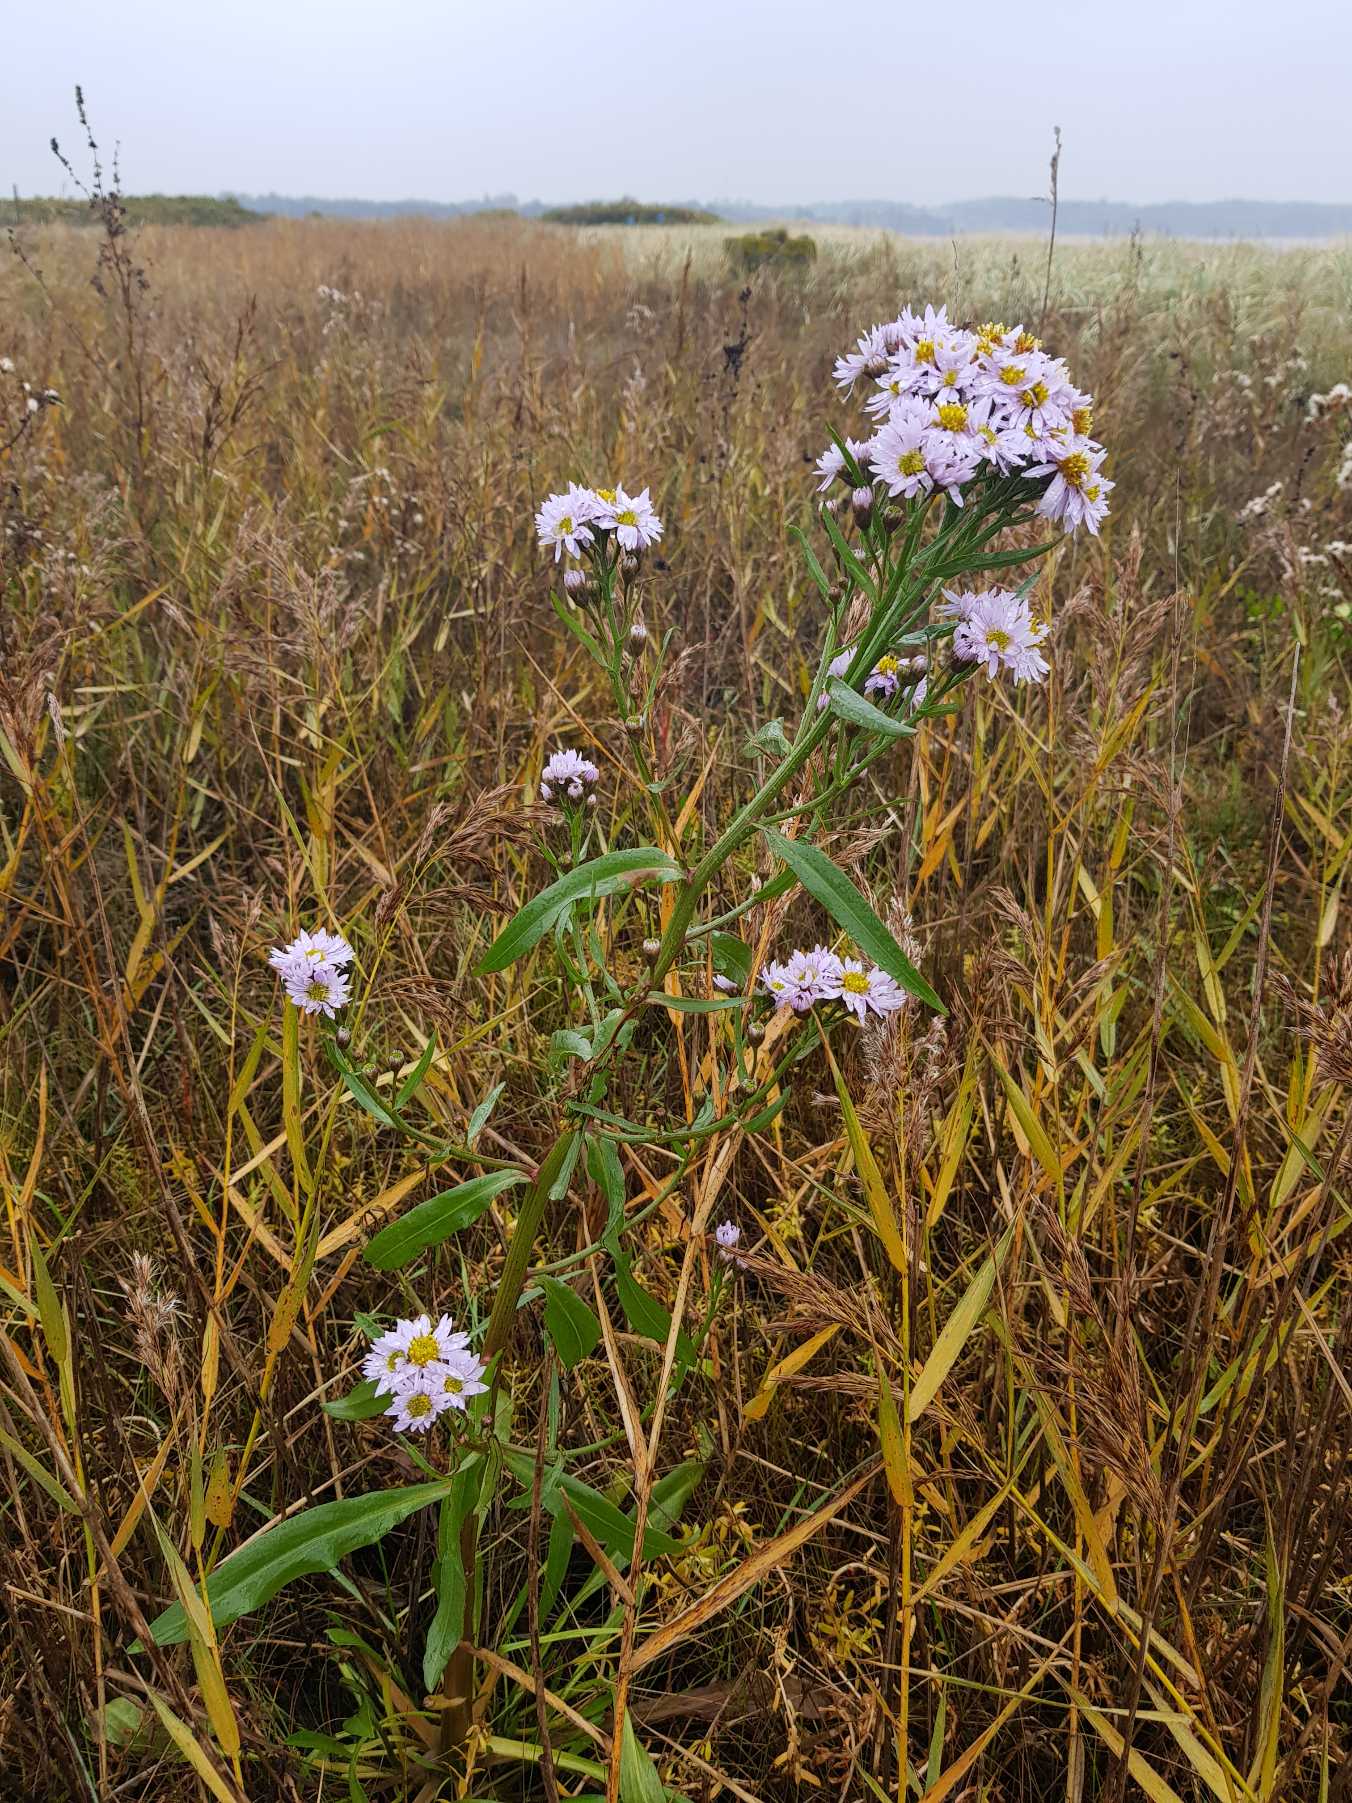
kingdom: Plantae
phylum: Tracheophyta
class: Magnoliopsida
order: Asterales
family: Asteraceae
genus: Tripolium
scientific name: Tripolium pannonicum
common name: Strandasters
